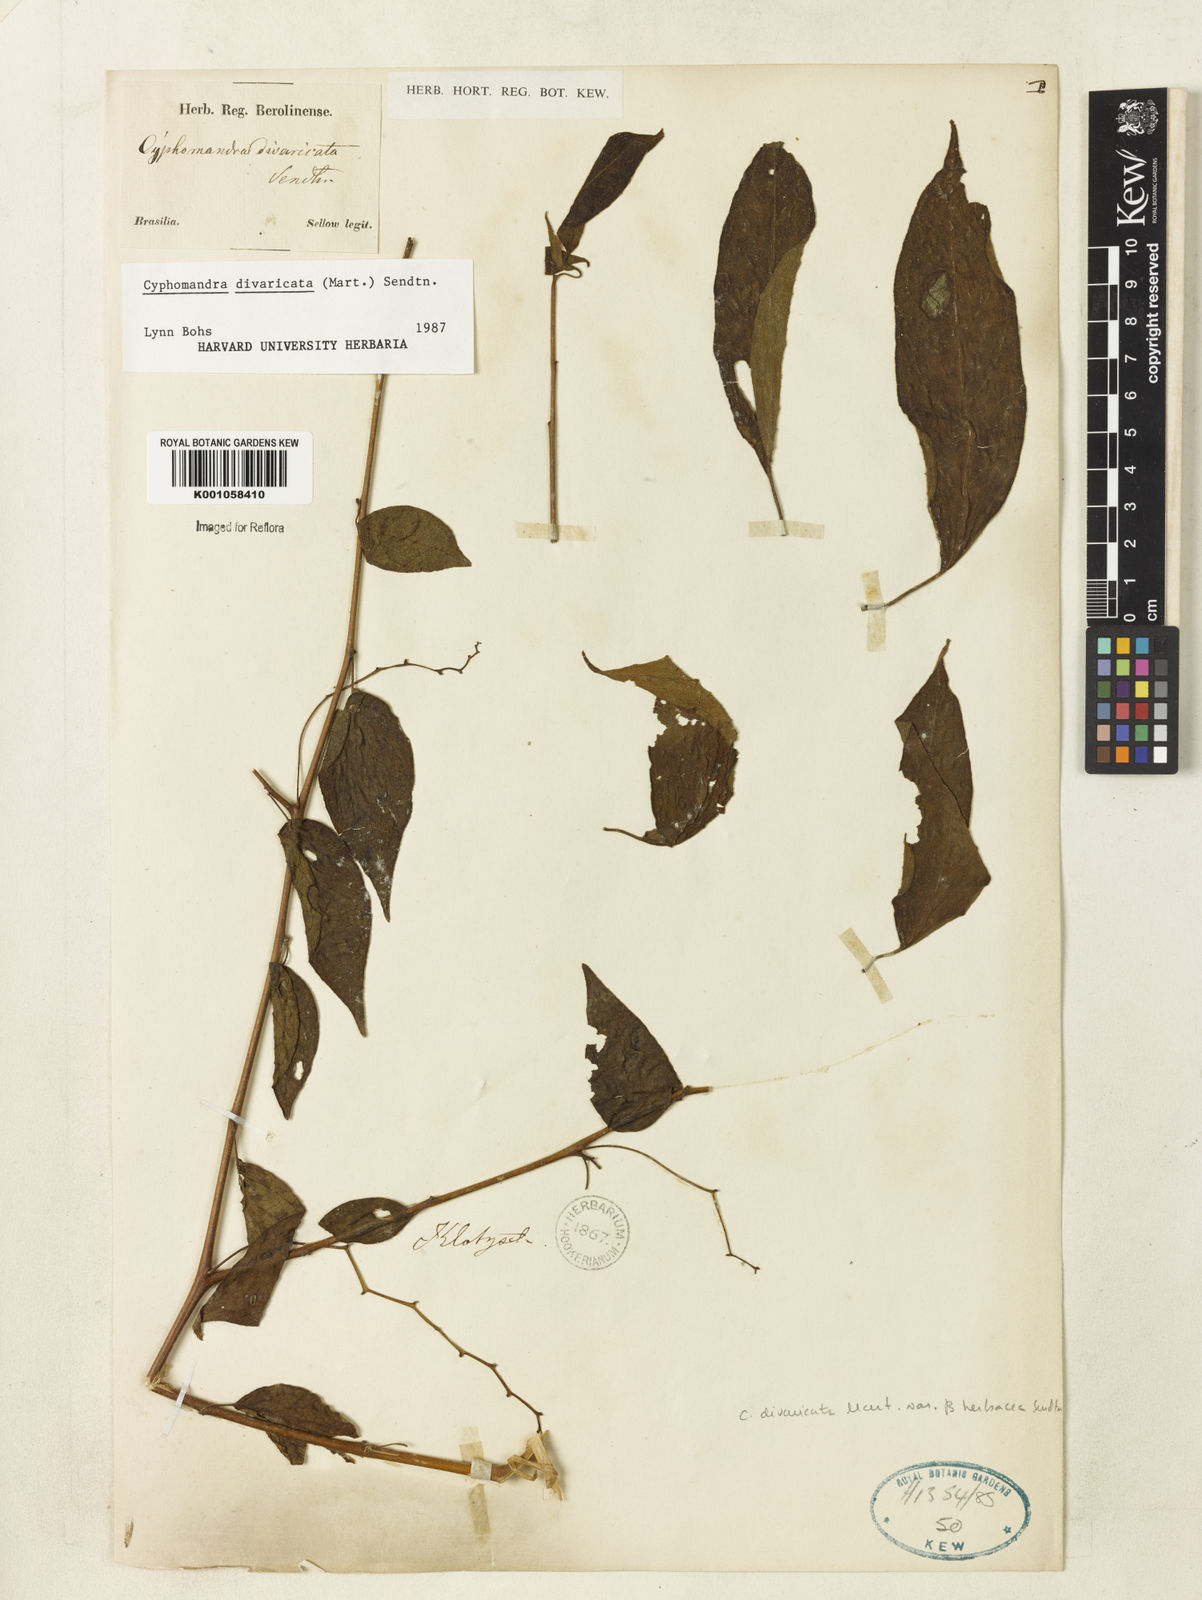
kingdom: Plantae
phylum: Tracheophyta
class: Magnoliopsida
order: Solanales
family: Solanaceae
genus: Solanum
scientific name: Solanum melissarum
